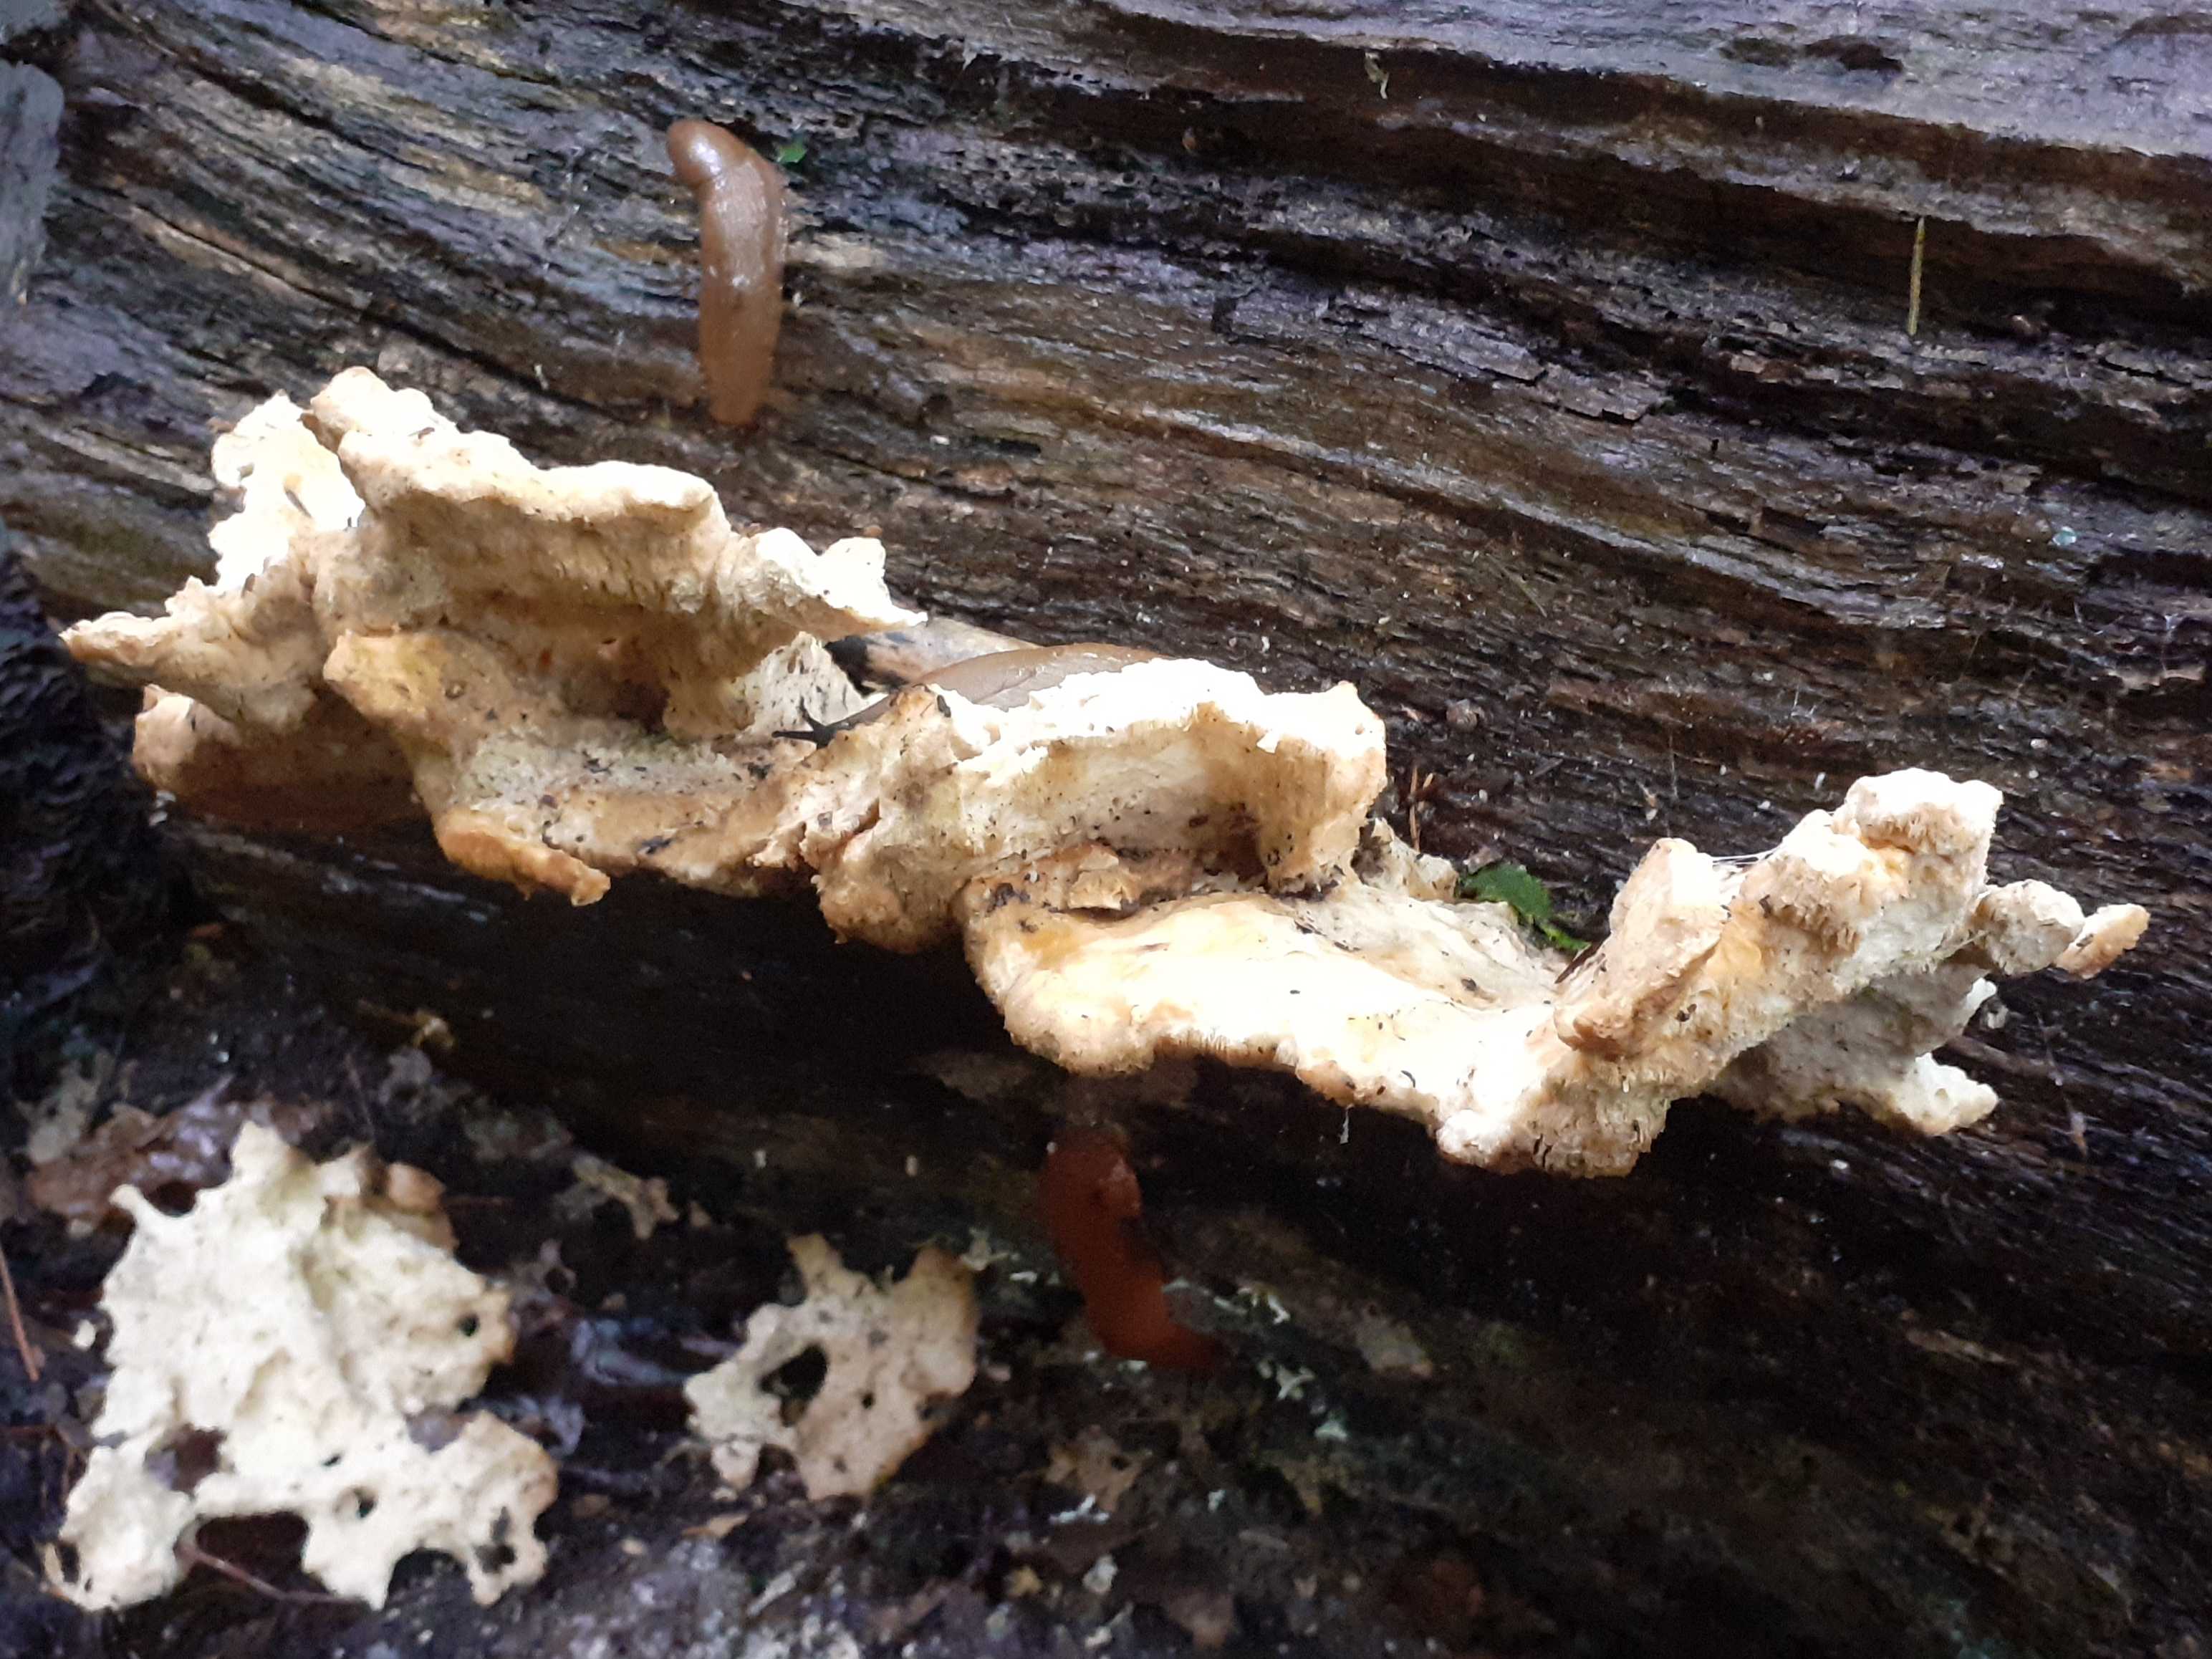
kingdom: Fungi
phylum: Basidiomycota
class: Agaricomycetes
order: Polyporales
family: Laetiporaceae
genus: Laetiporus
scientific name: Laetiporus sulphureus
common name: svovlporesvamp
